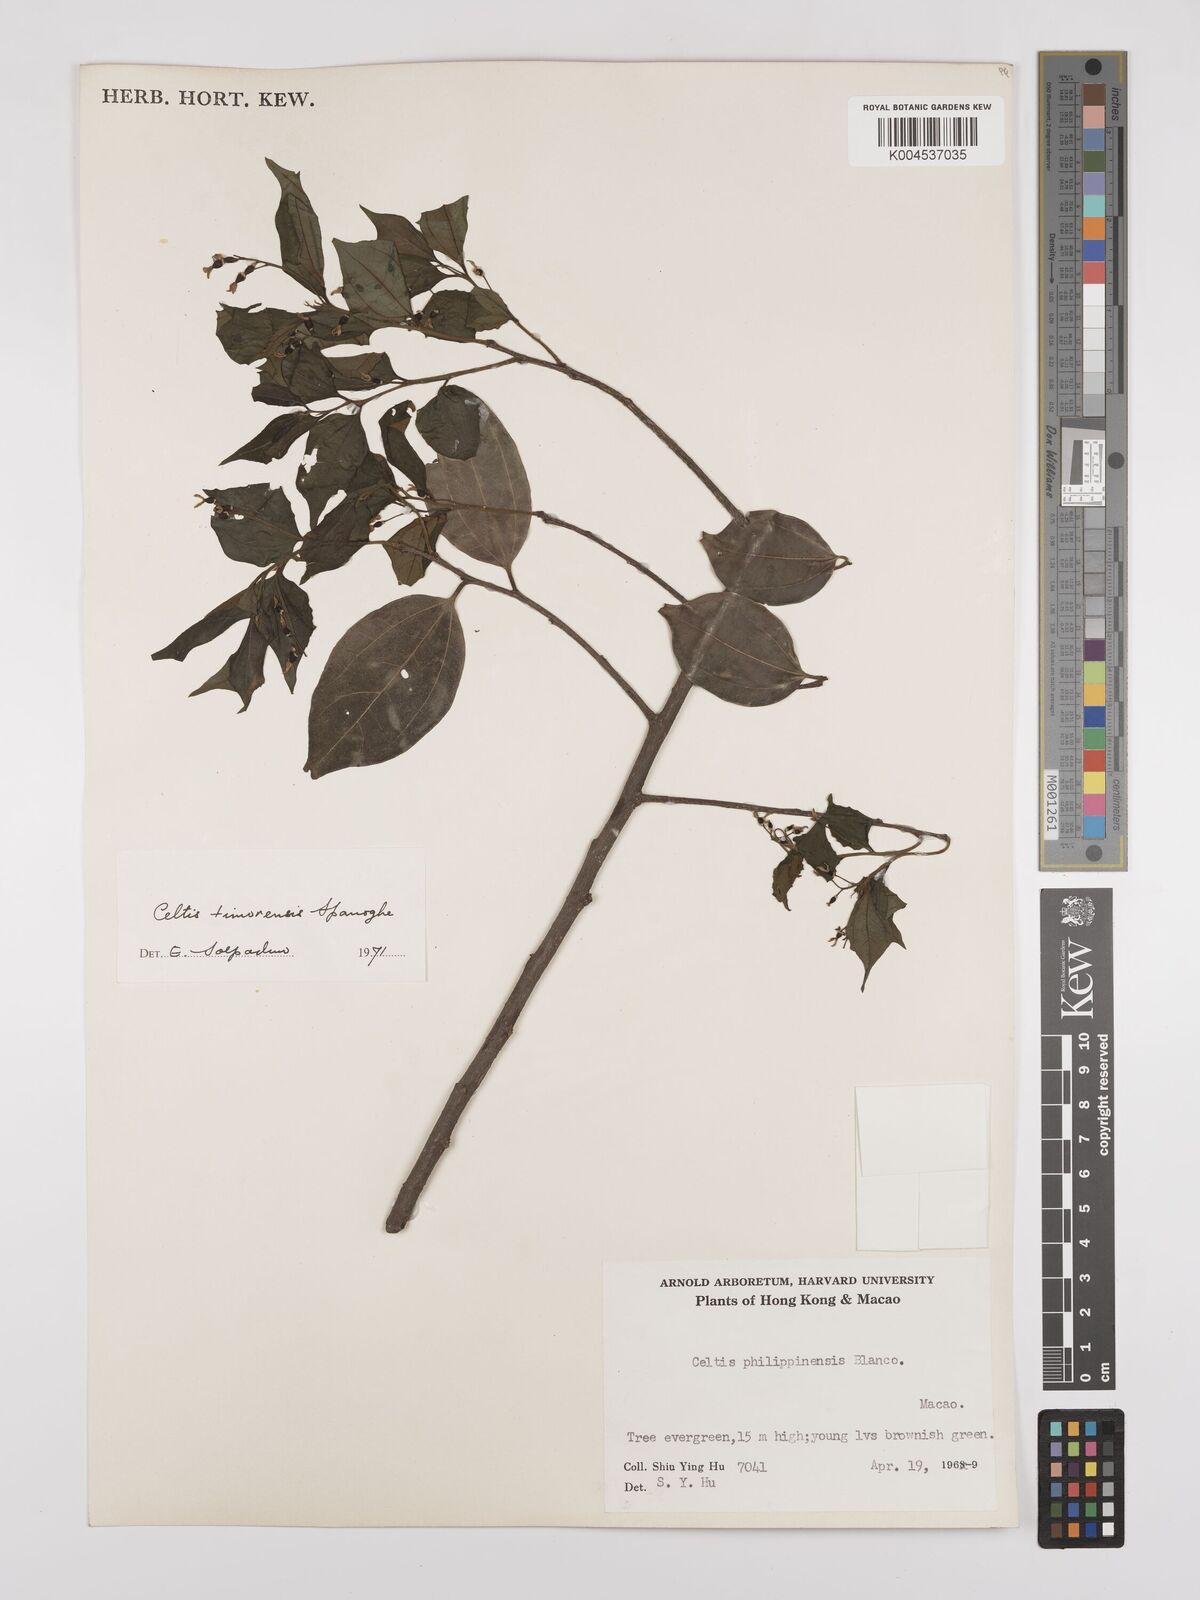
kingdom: Plantae
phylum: Tracheophyta
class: Magnoliopsida
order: Rosales
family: Cannabaceae
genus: Celtis
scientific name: Celtis timorensis
